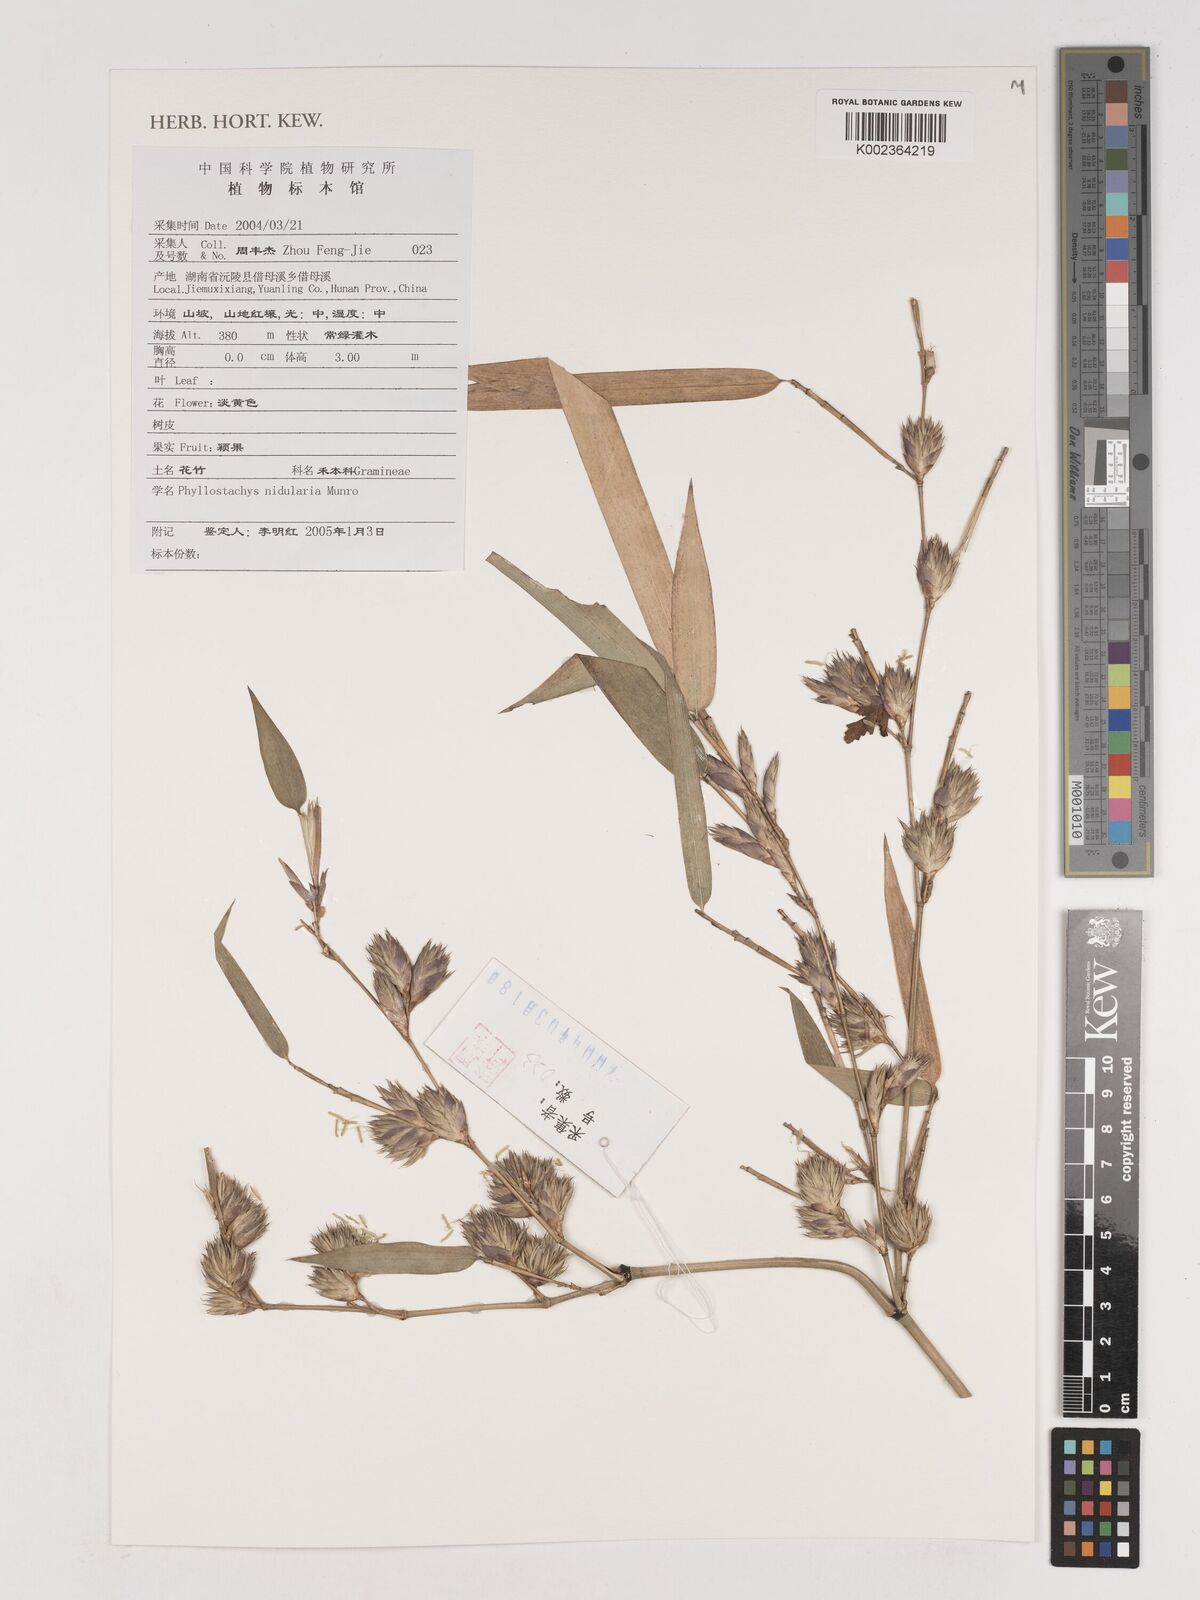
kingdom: Plantae
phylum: Tracheophyta
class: Liliopsida
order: Poales
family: Poaceae
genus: Phyllostachys
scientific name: Phyllostachys nidularia
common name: Broom bamboo
